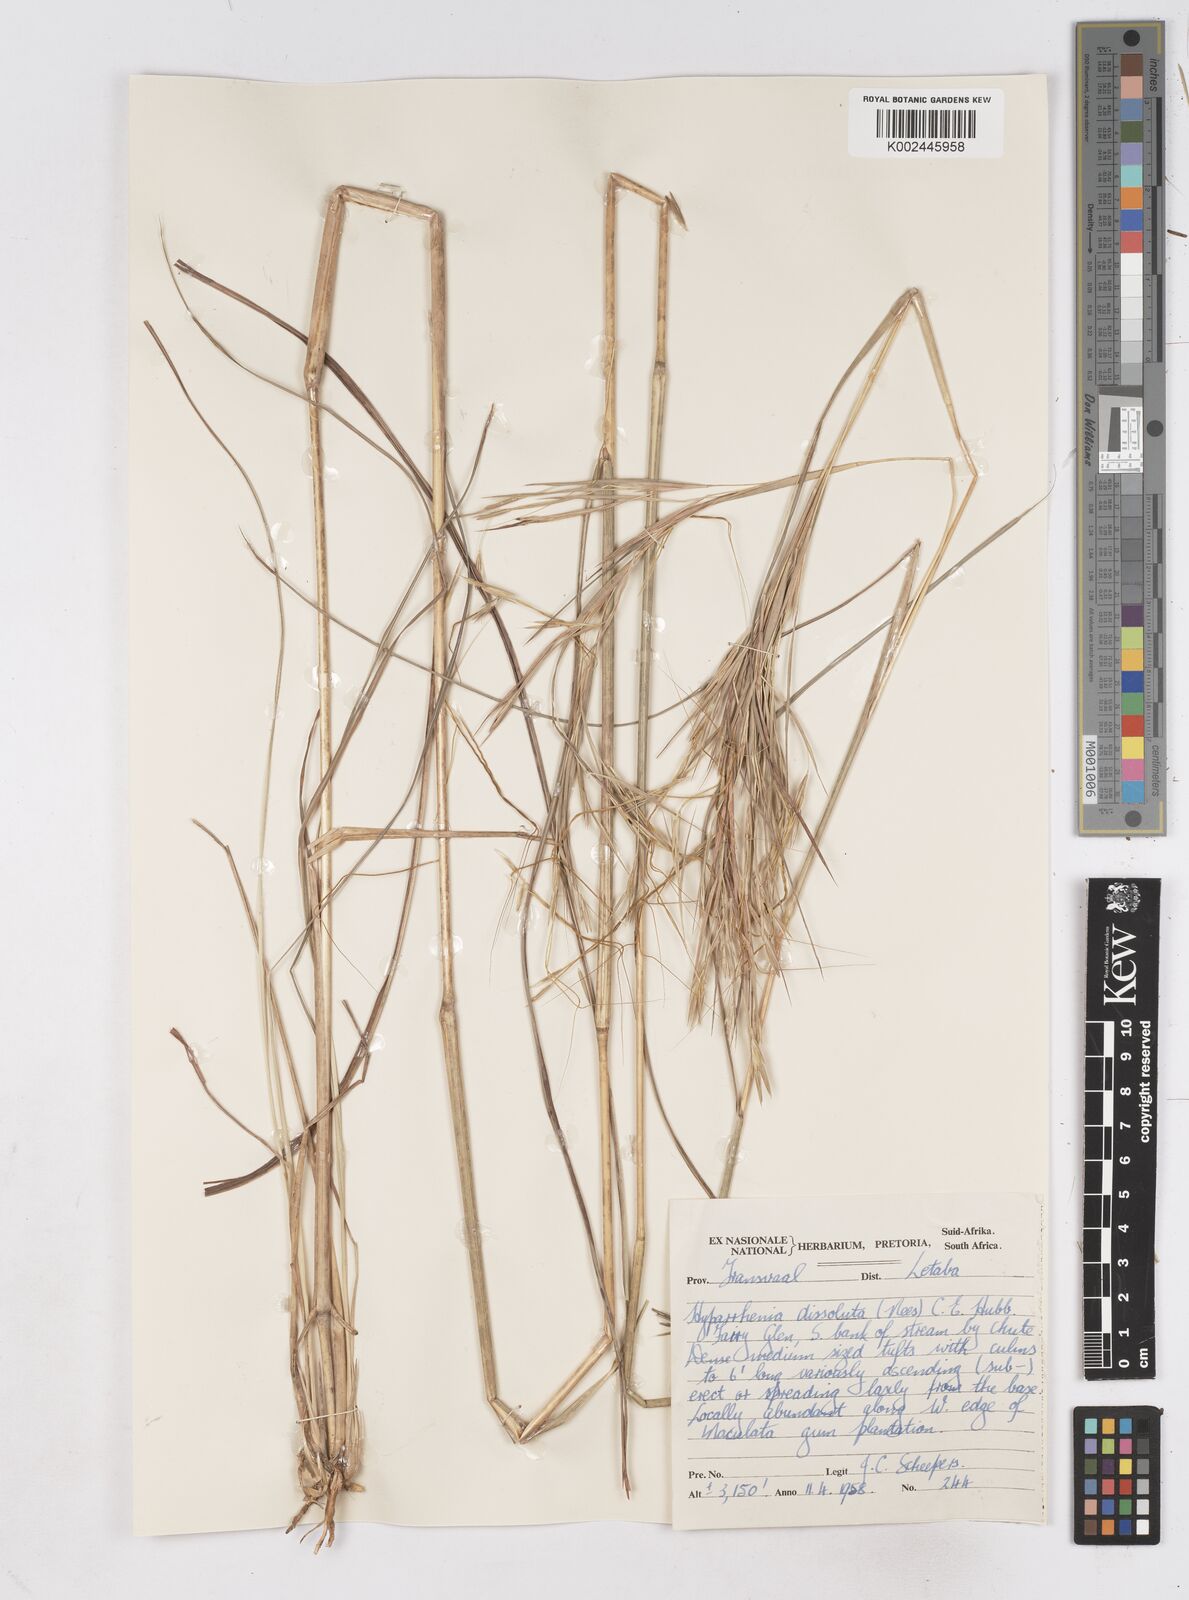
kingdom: Plantae
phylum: Tracheophyta
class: Liliopsida
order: Poales
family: Poaceae
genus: Hyperthelia
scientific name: Hyperthelia dissoluta
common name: Yellow thatching grass
